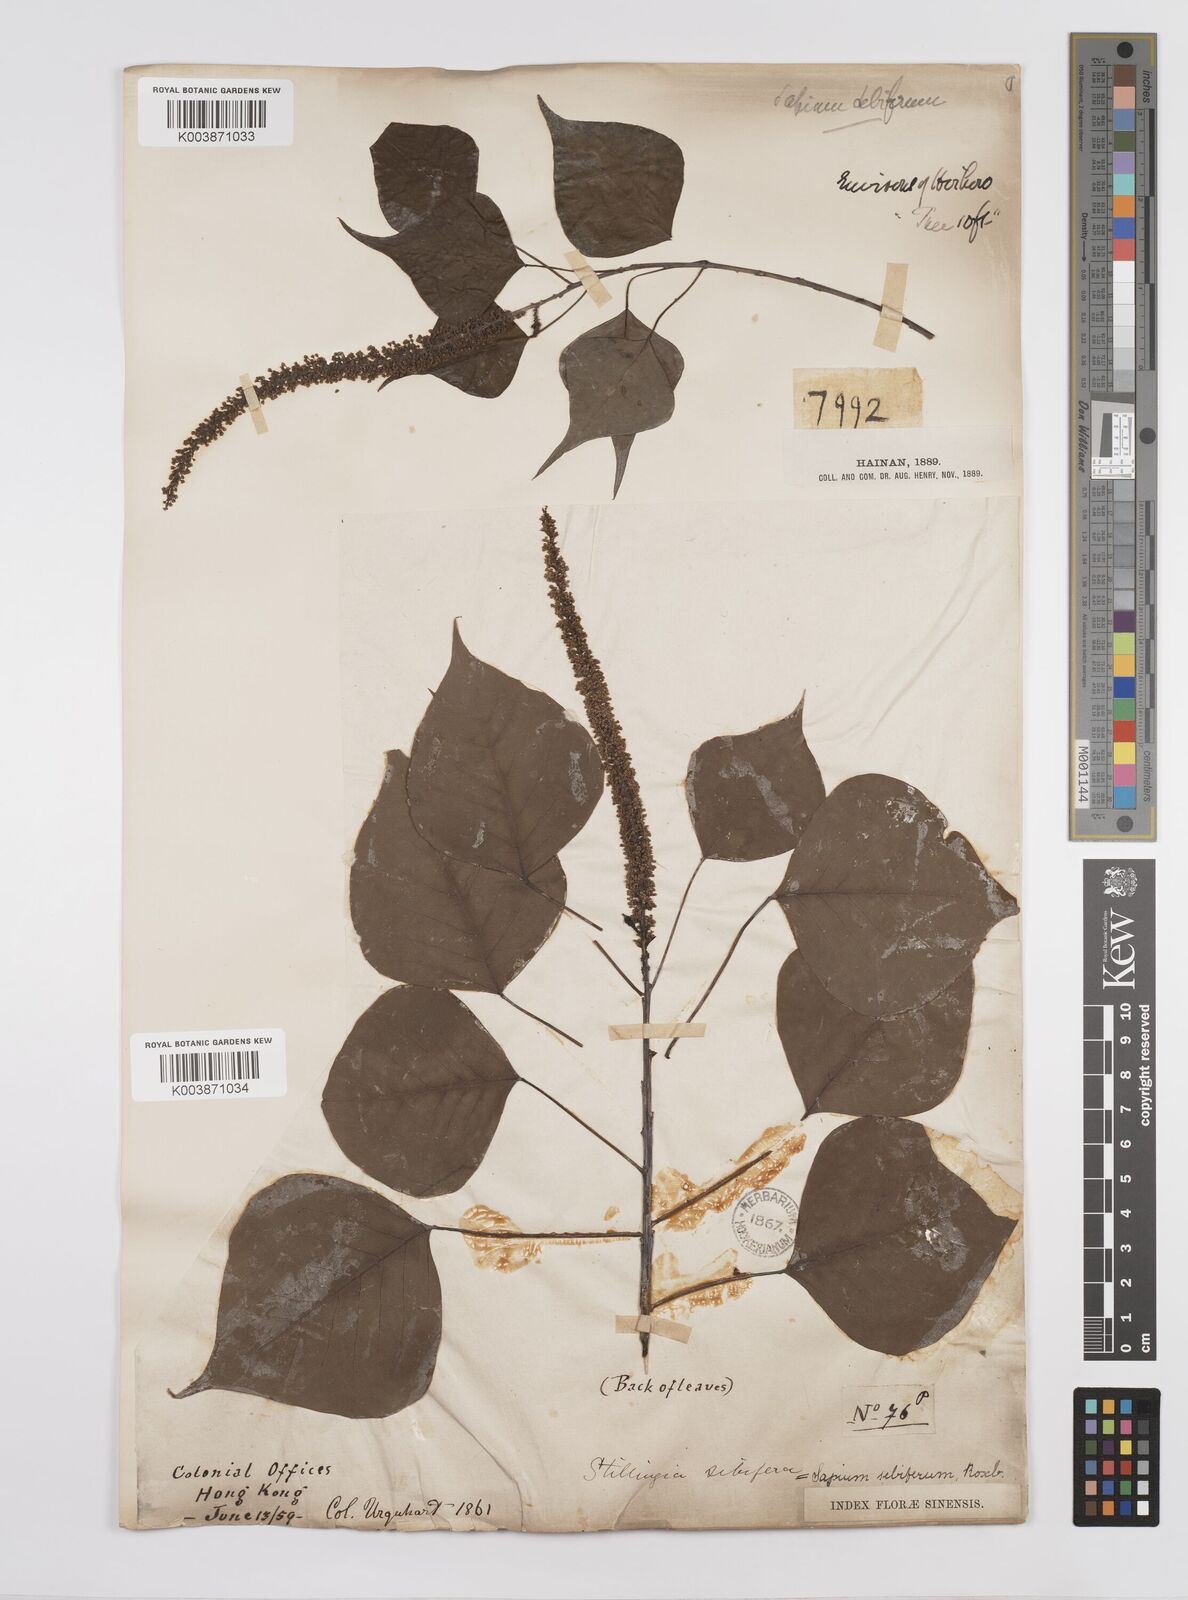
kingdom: Plantae
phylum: Tracheophyta
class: Magnoliopsida
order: Malpighiales
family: Euphorbiaceae
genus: Triadica
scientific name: Triadica sebifera
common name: Chinese tallow
